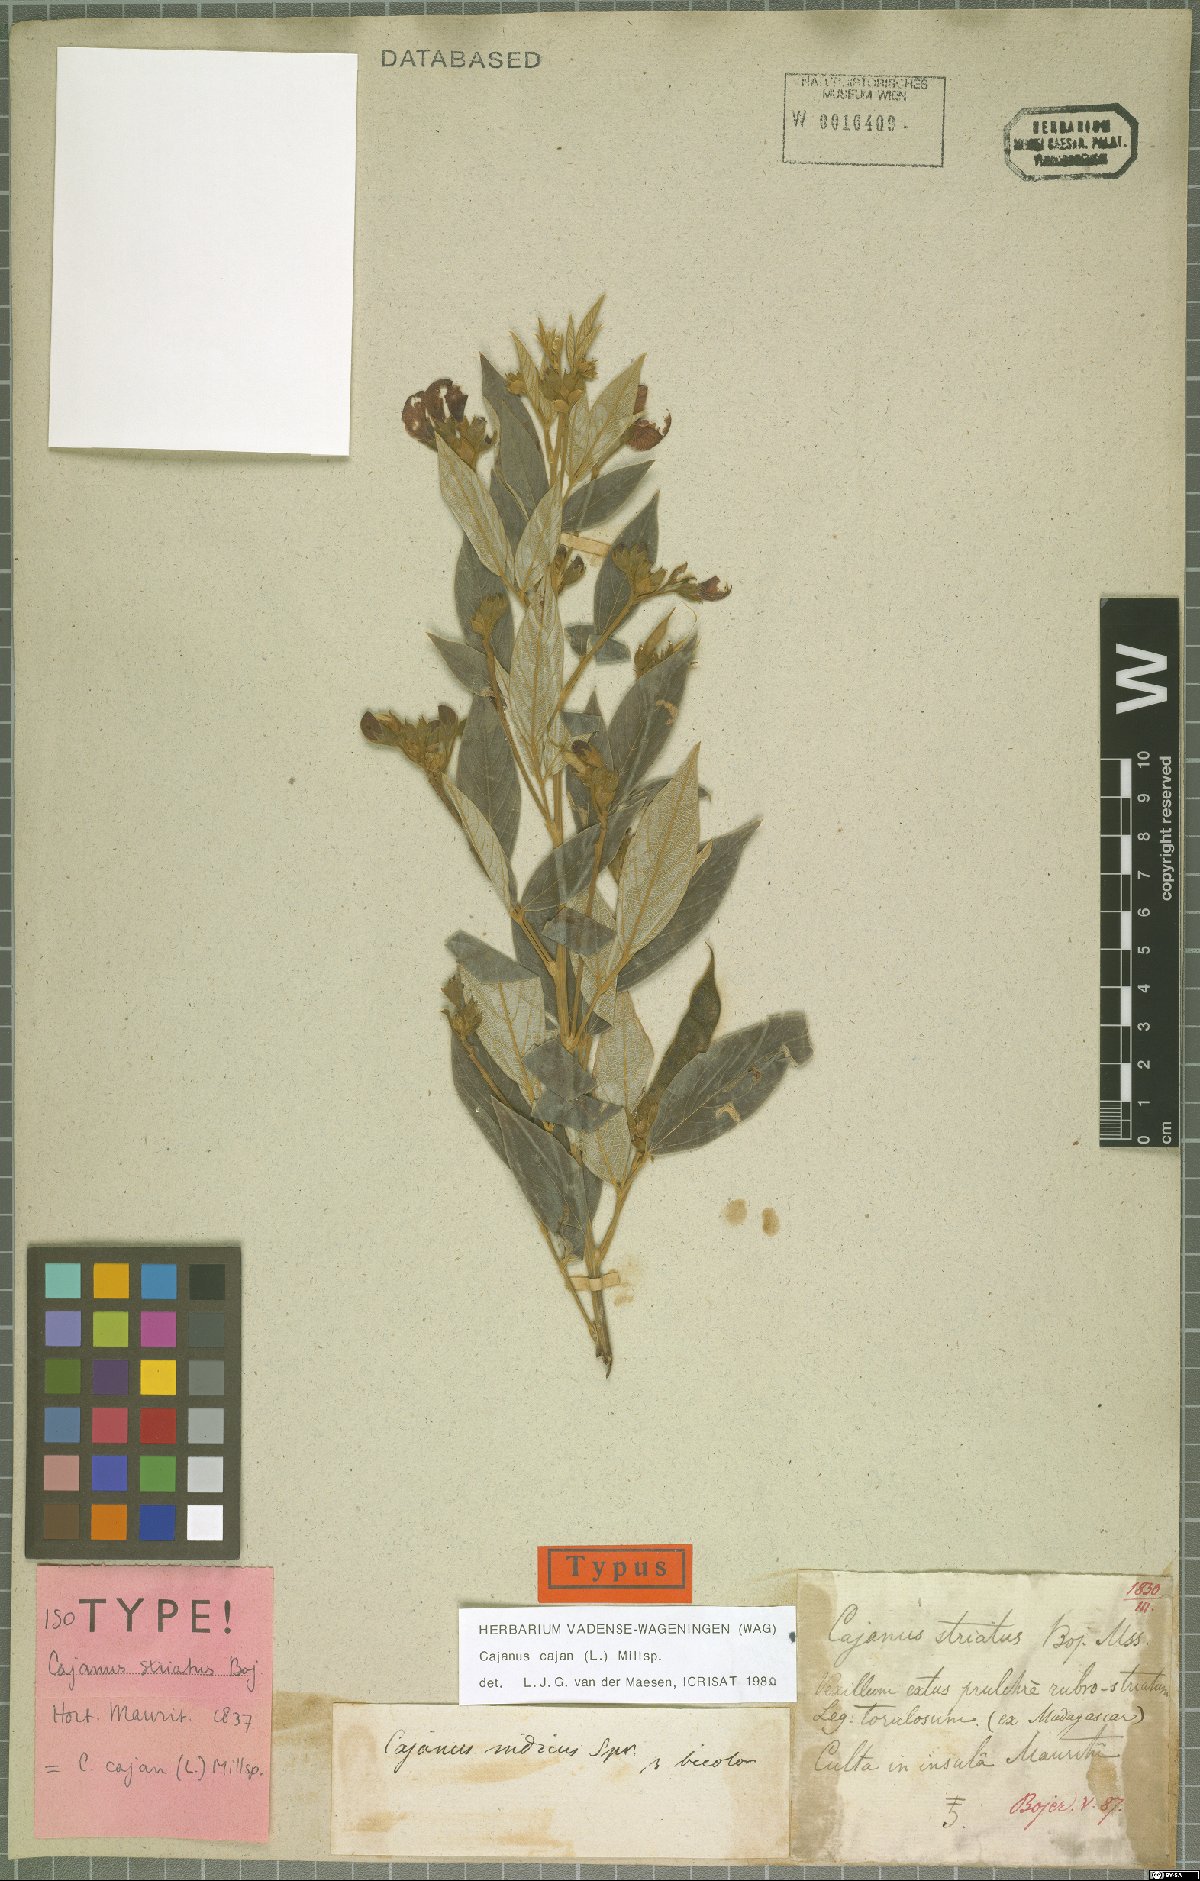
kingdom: Plantae
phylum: Tracheophyta
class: Magnoliopsida
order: Fabales
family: Fabaceae
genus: Cajanus
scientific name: Cajanus cajan
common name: Pigeonpea
